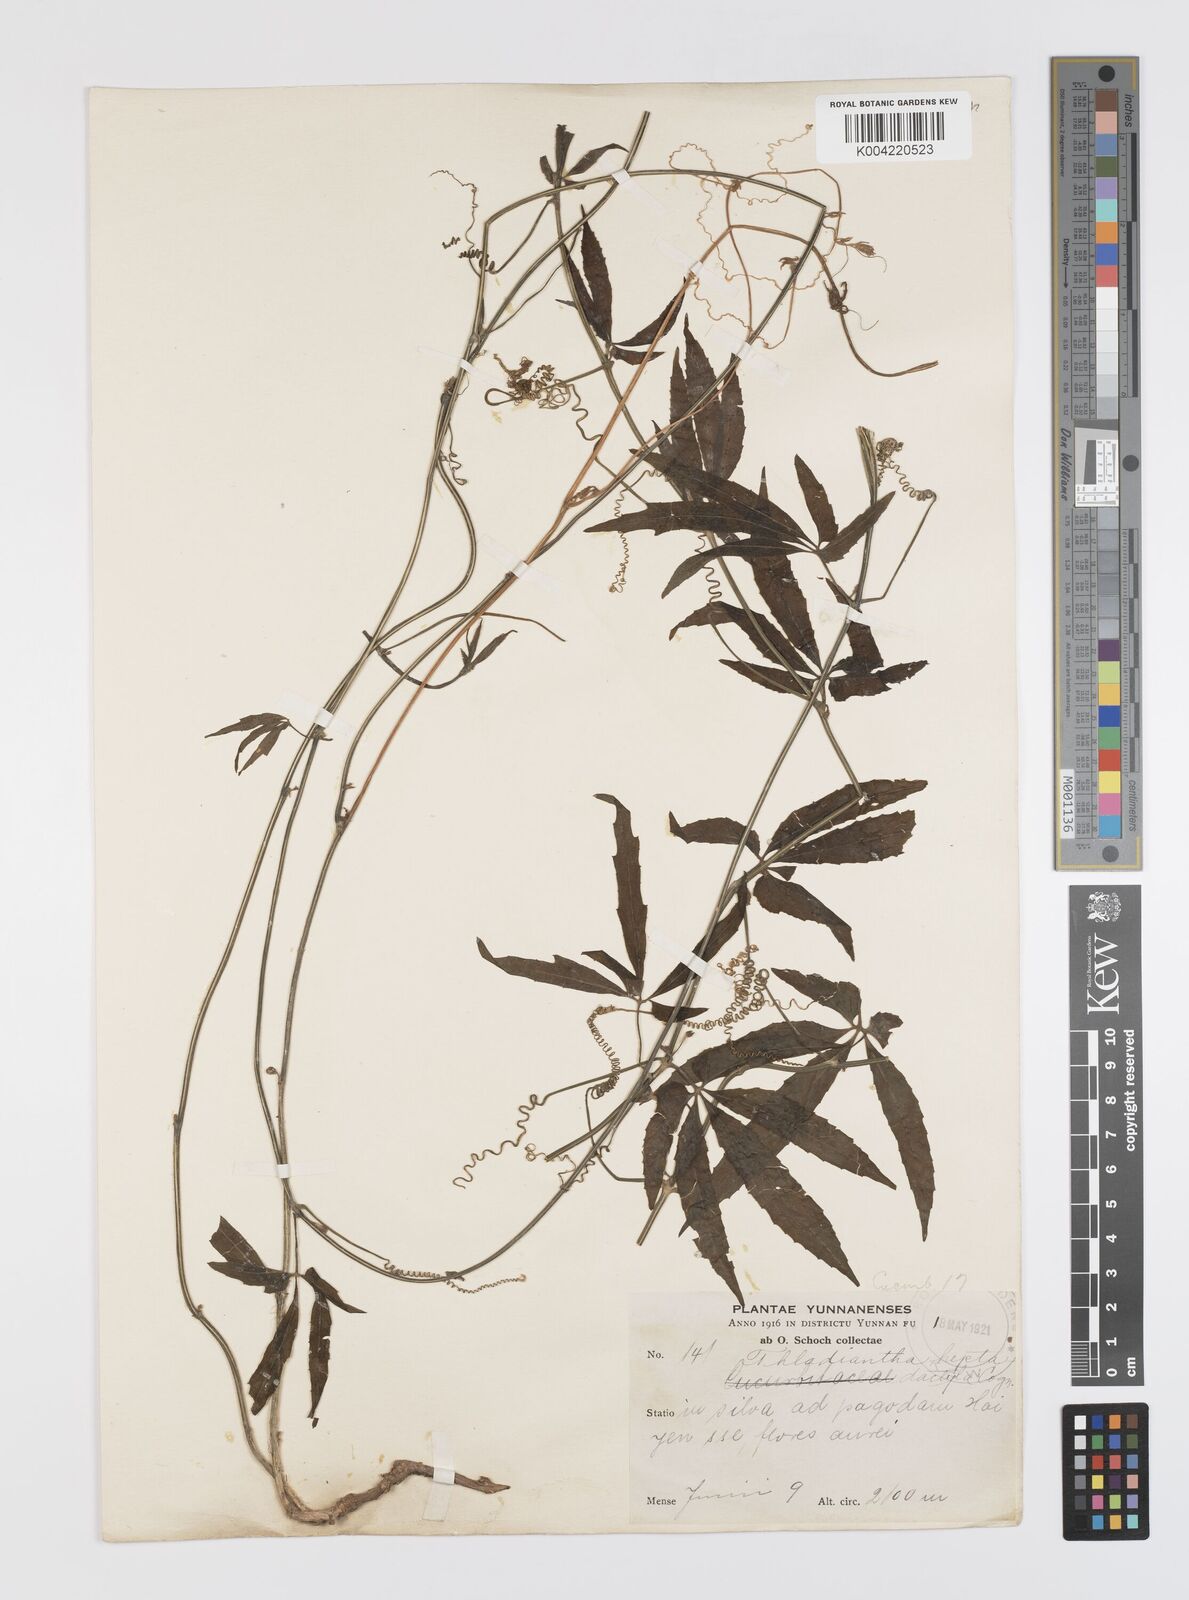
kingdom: Plantae
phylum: Tracheophyta
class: Magnoliopsida
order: Cucurbitales
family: Cucurbitaceae
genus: Thladiantha
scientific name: Thladiantha hookeri
